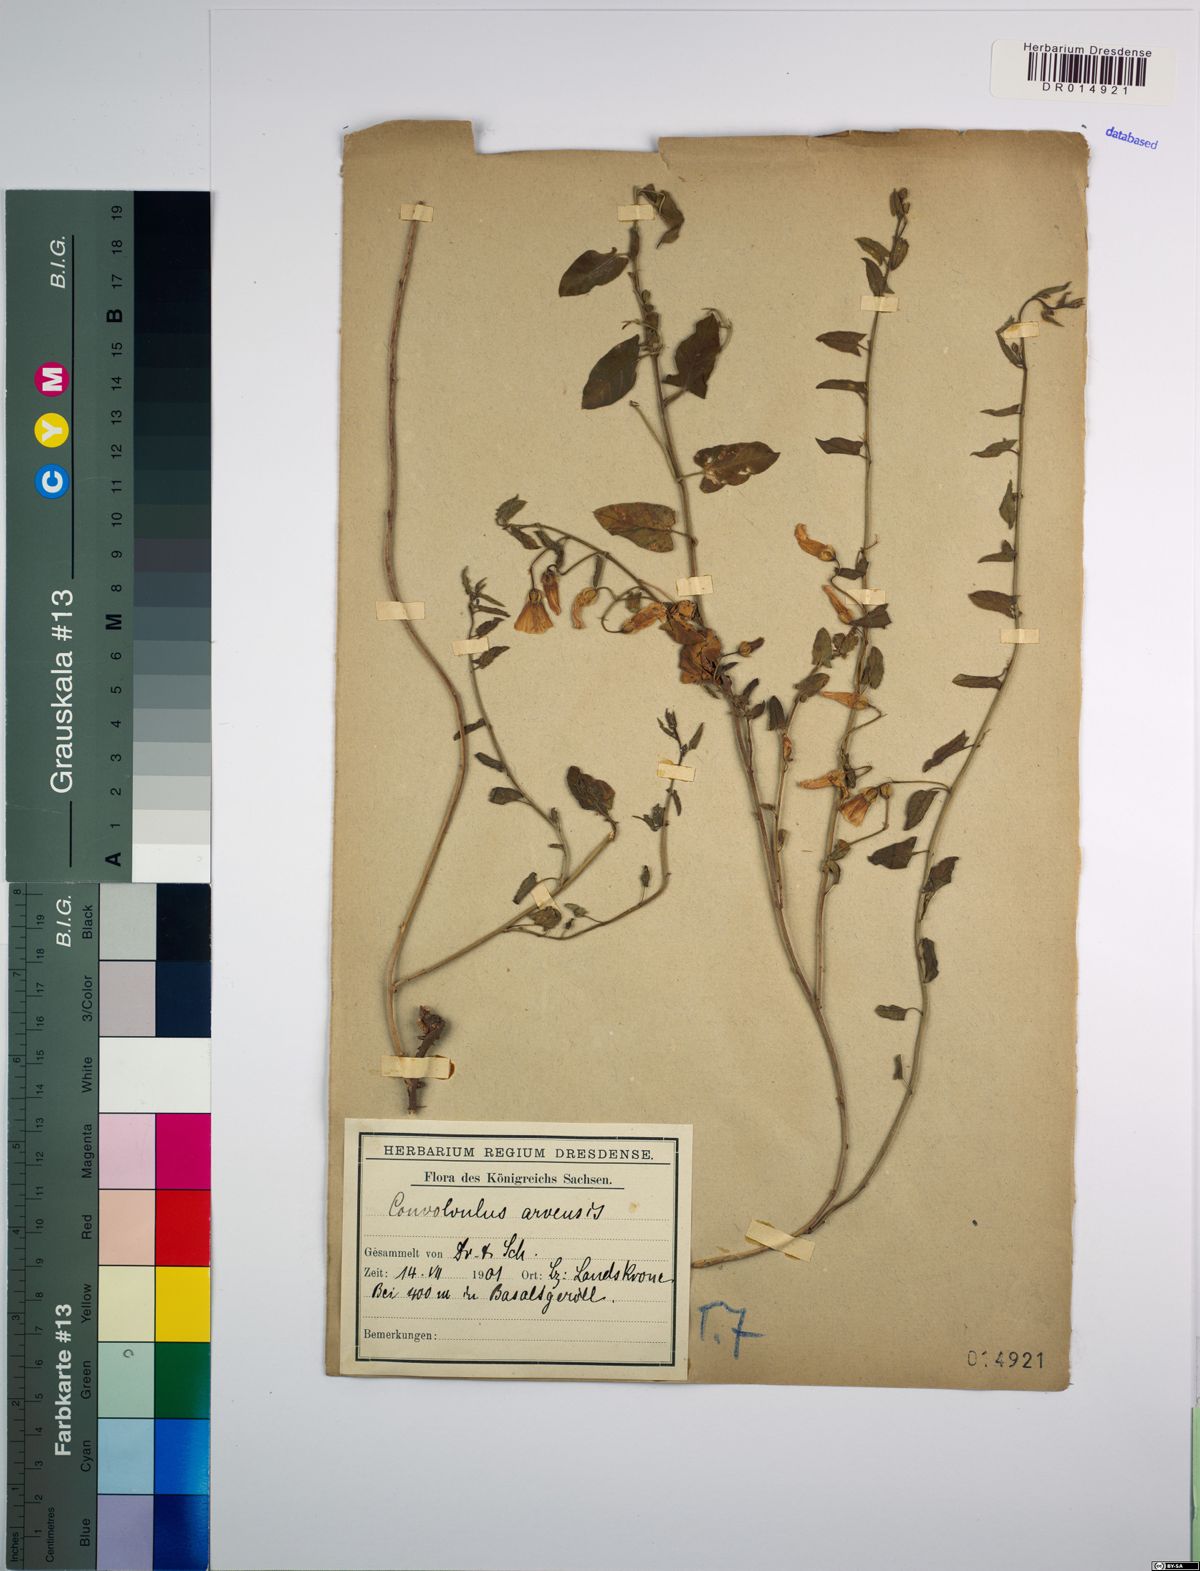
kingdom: Plantae
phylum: Tracheophyta
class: Magnoliopsida
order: Solanales
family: Convolvulaceae
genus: Convolvulus
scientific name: Convolvulus arvensis
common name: Field bindweed
